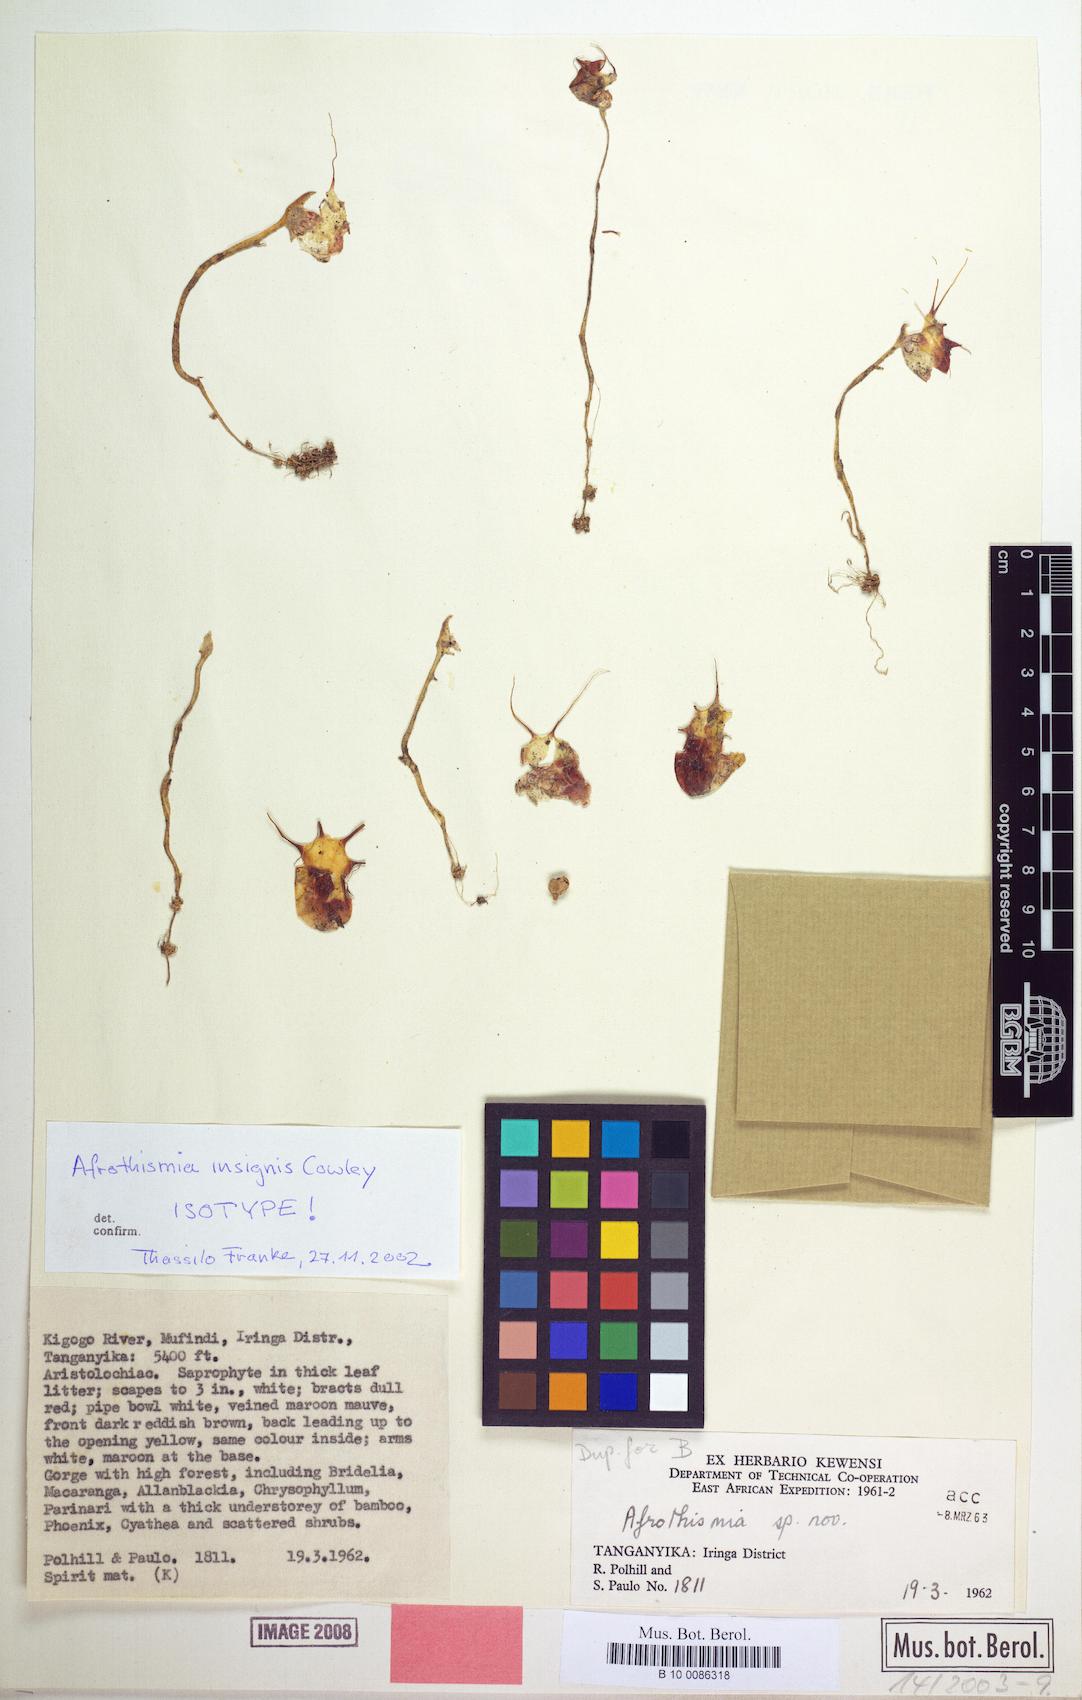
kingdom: Plantae
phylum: Tracheophyta
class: Liliopsida
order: Dioscoreales
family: Burmanniaceae
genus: Afrothismia
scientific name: Afrothismia insignis
